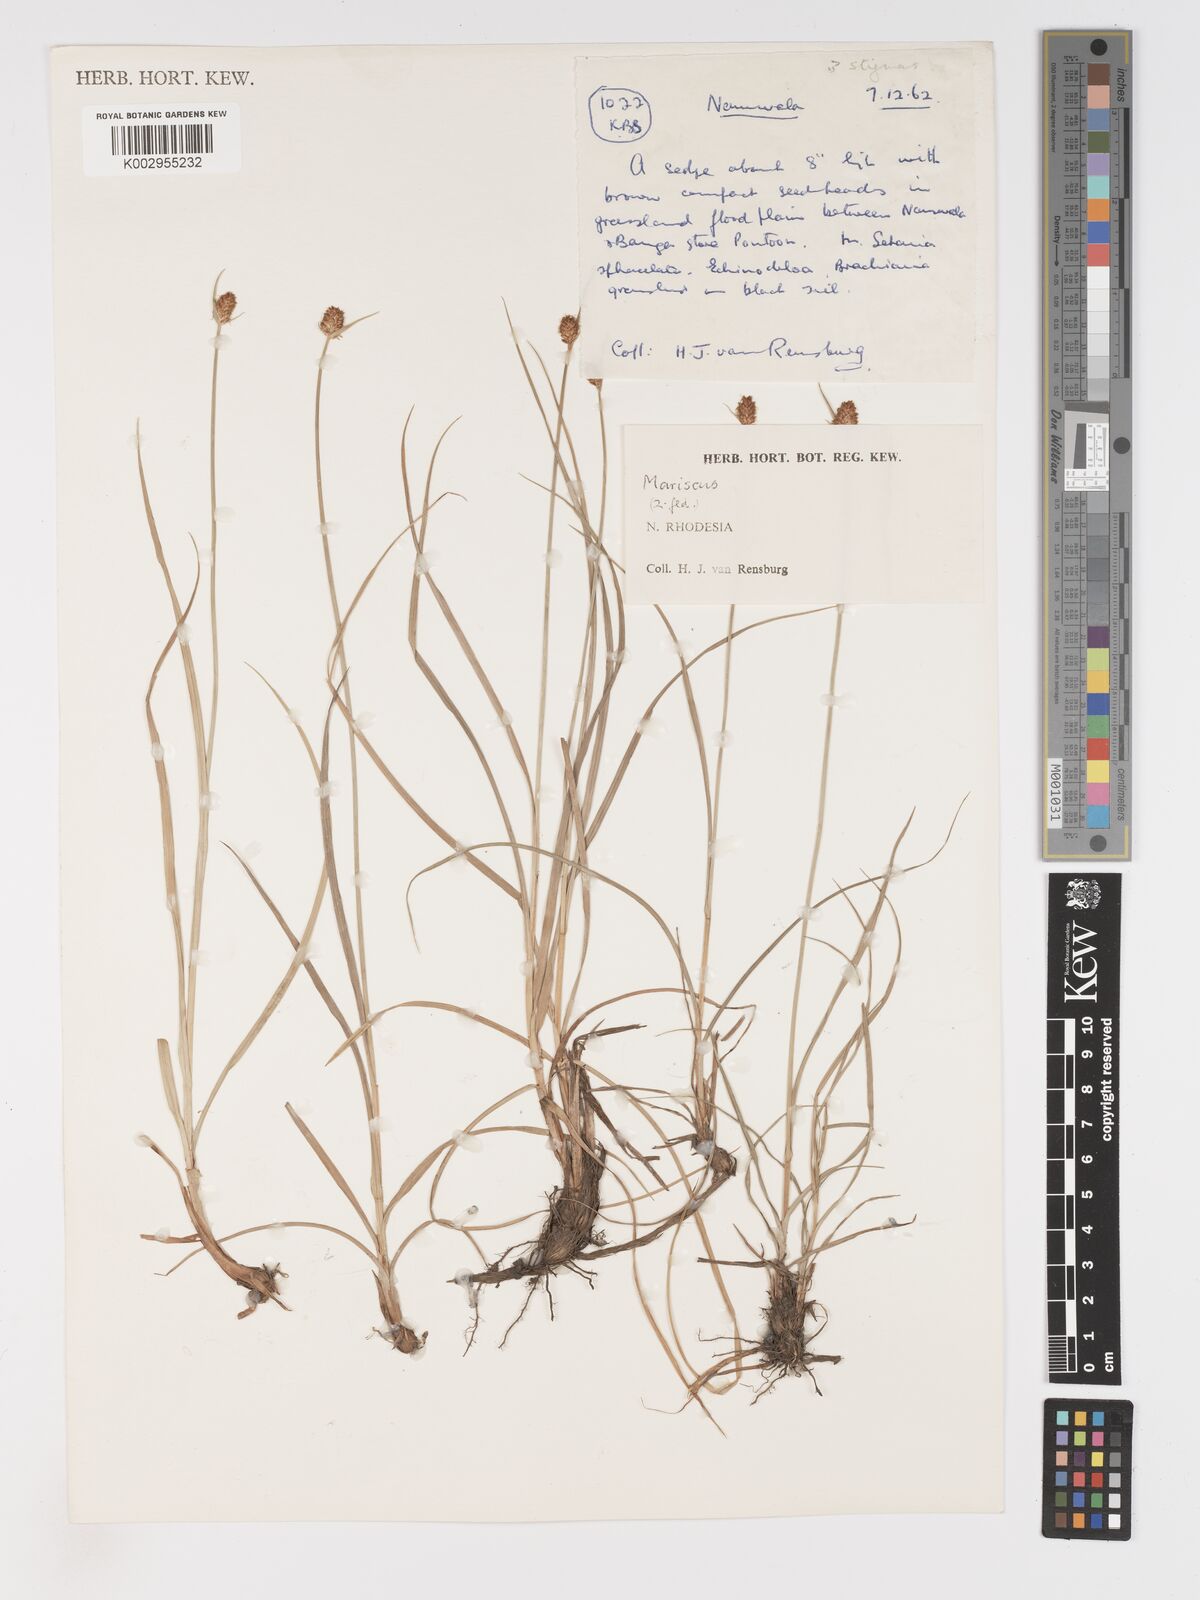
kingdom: Plantae
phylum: Tracheophyta
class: Liliopsida
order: Poales
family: Cyperaceae
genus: Cyperus
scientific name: Cyperus
